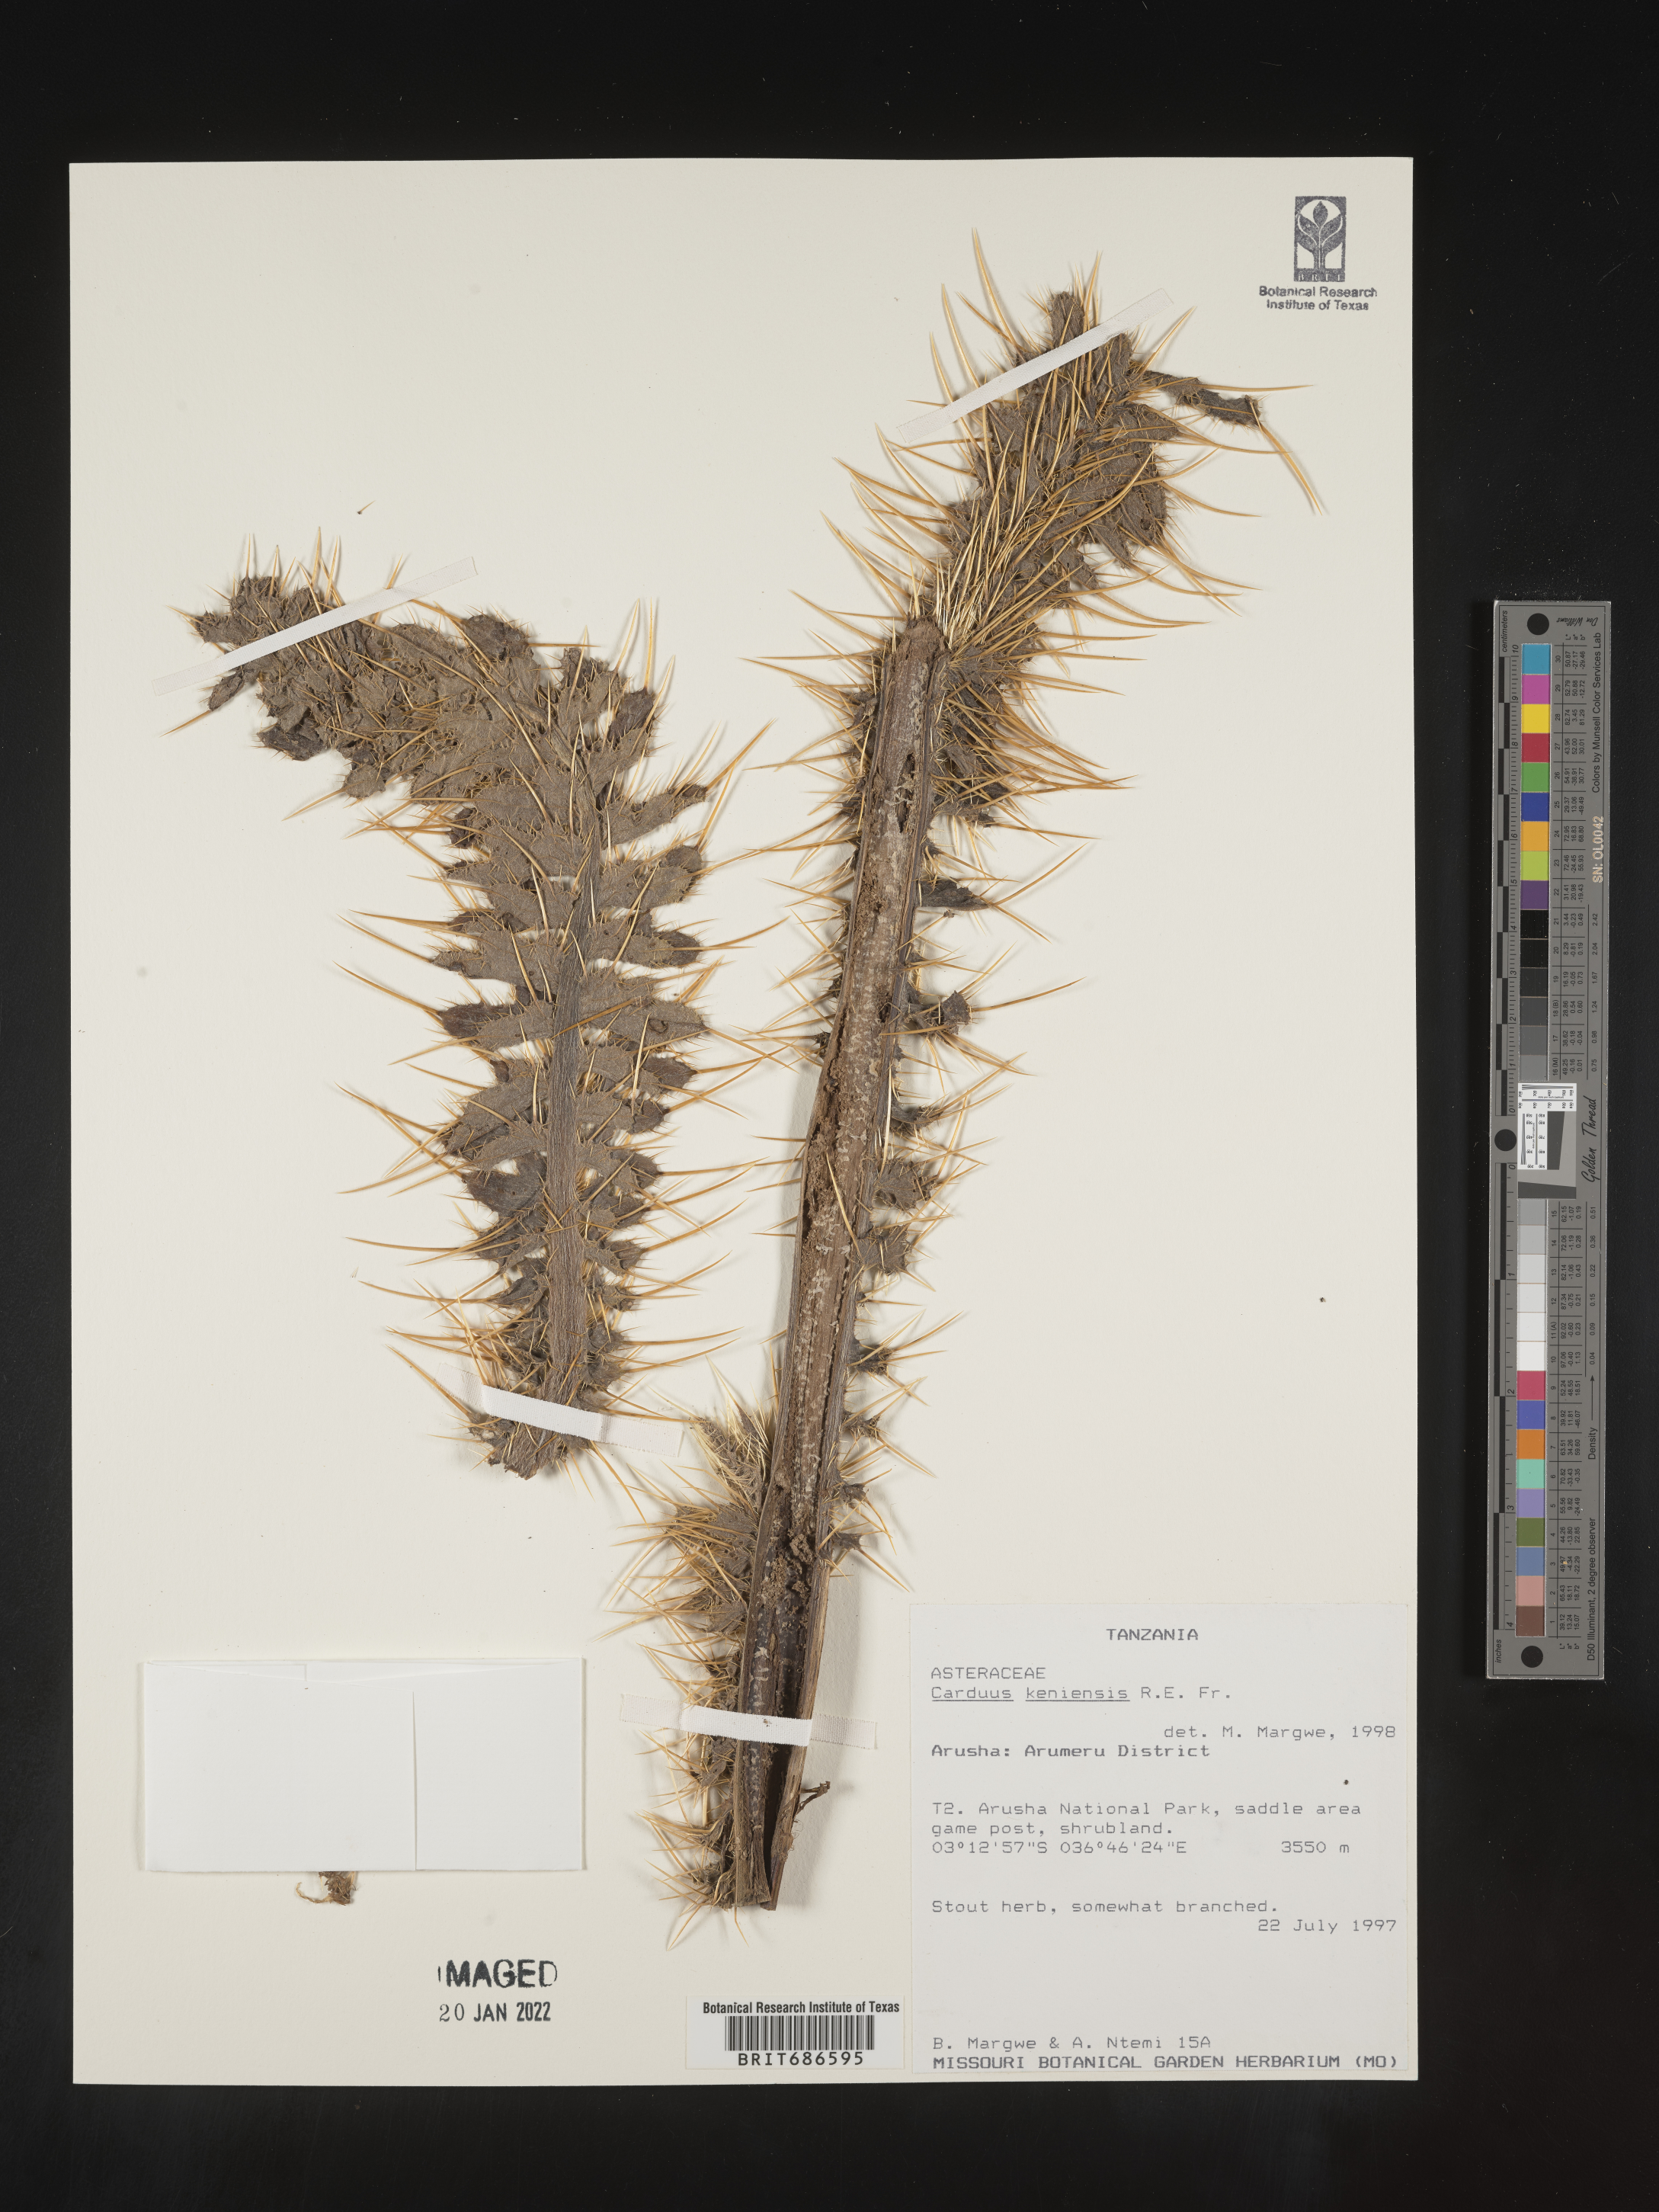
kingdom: Plantae
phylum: Tracheophyta
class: Magnoliopsida
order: Asterales
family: Asteraceae
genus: Carduus
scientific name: Carduus
